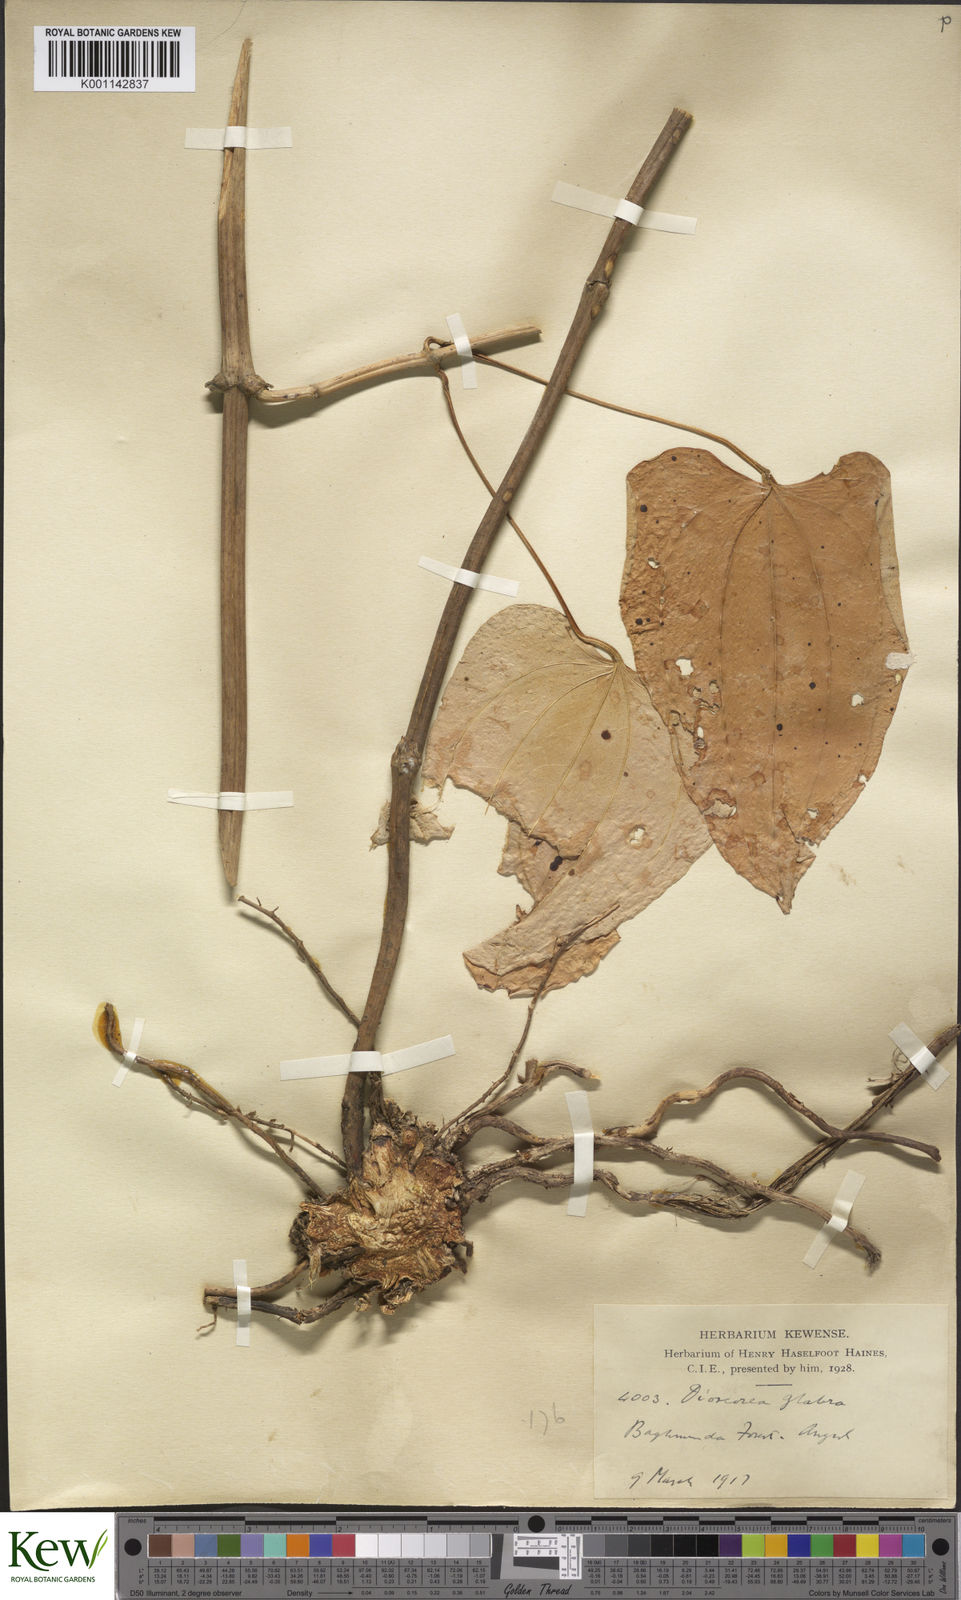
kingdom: Plantae
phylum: Tracheophyta
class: Liliopsida
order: Dioscoreales
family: Dioscoreaceae
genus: Dioscorea
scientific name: Dioscorea glabra
